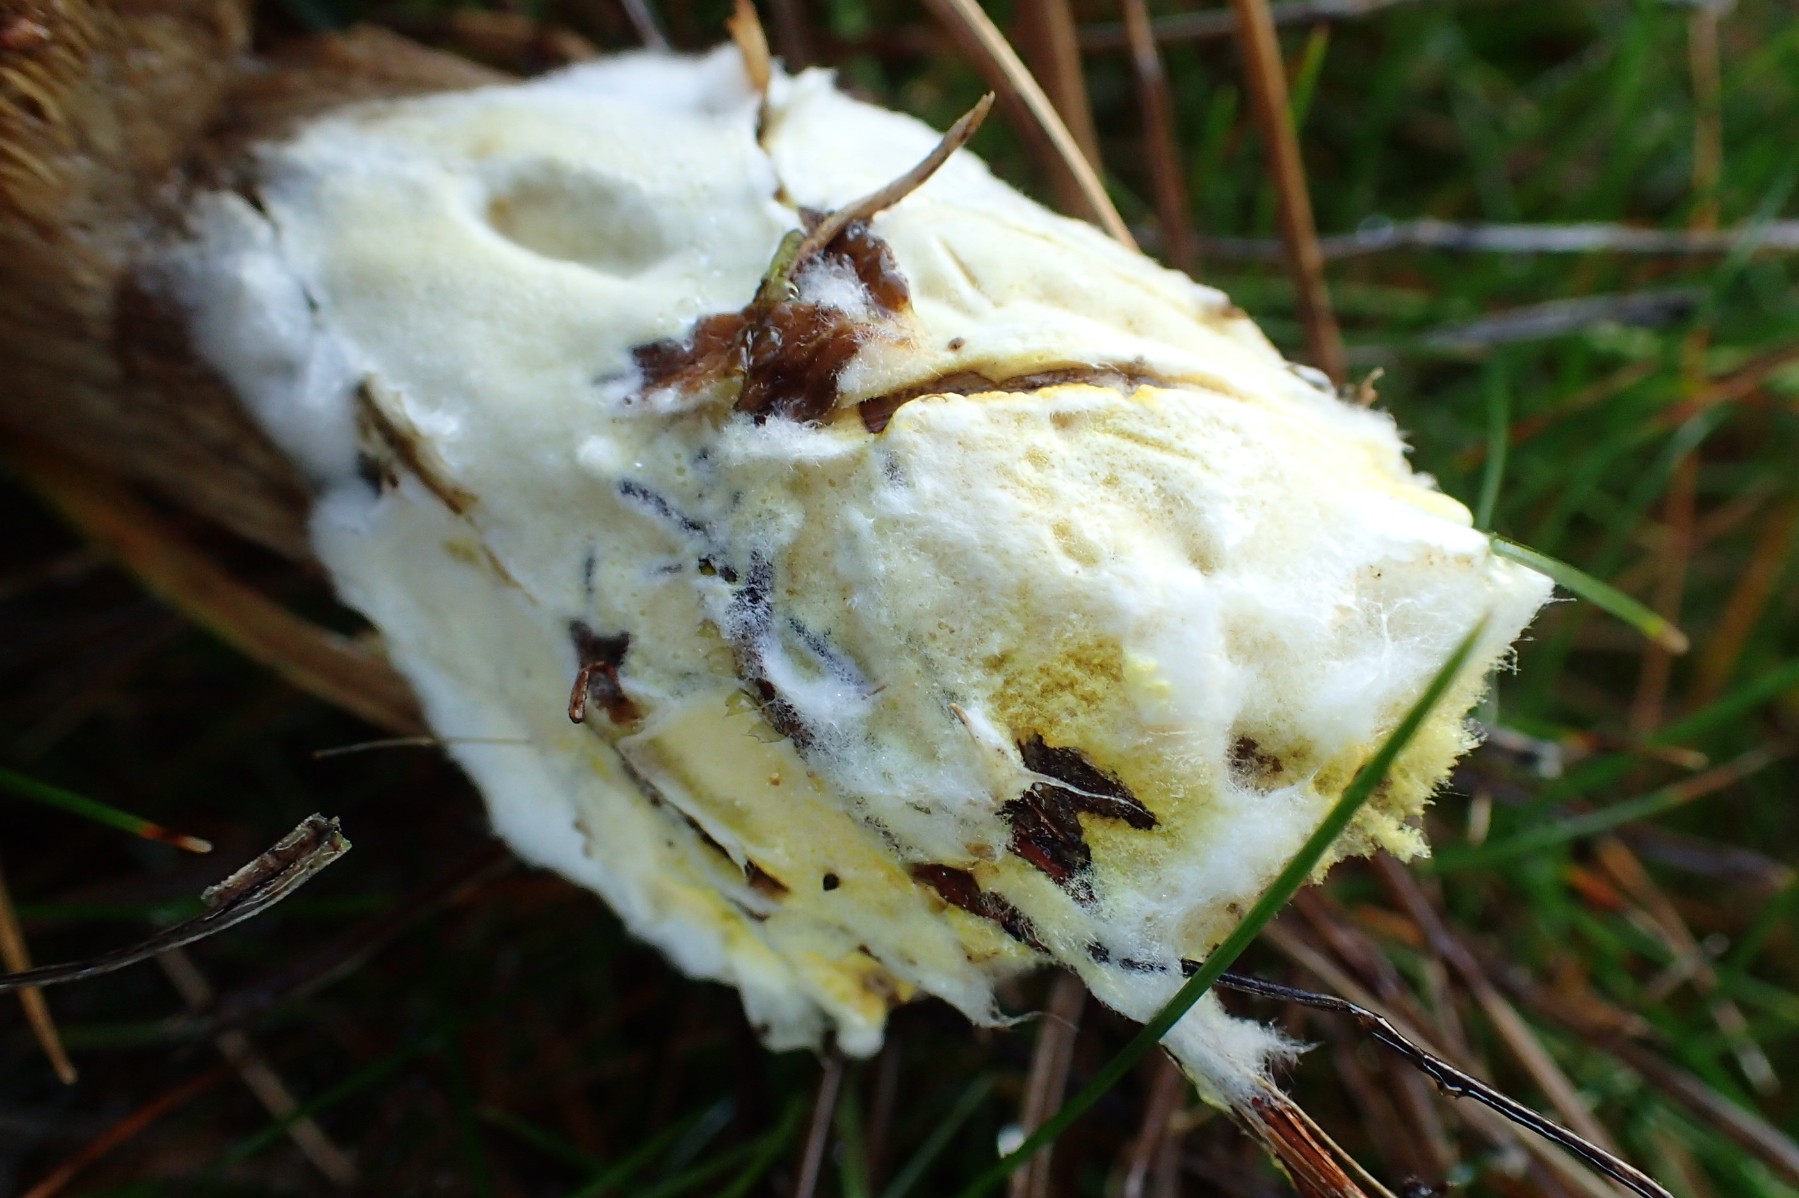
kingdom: Fungi
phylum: Ascomycota
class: Sordariomycetes
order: Hypocreales
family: Hypocreaceae
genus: Hypomyces
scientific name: Hypomyces chrysospermus
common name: gulskimmel-snylteskorpe
